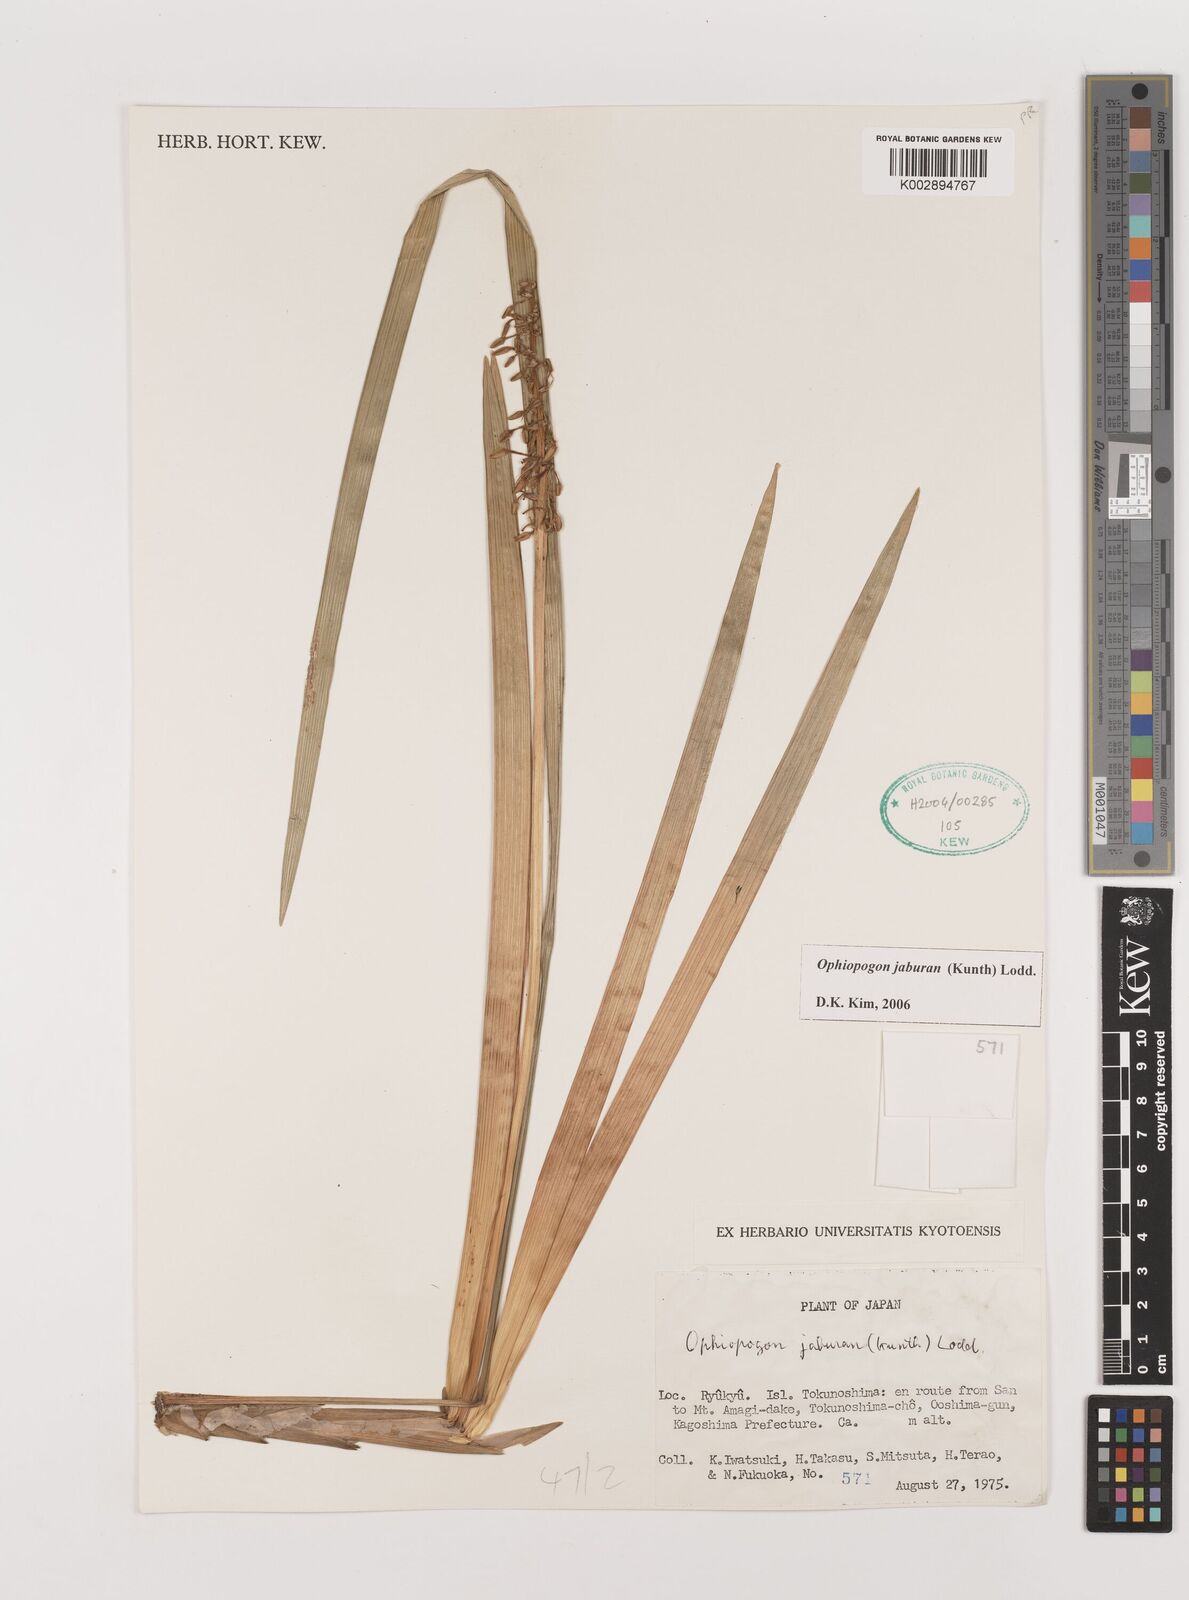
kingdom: Plantae
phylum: Tracheophyta
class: Liliopsida
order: Asparagales
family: Asparagaceae
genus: Ophiopogon
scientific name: Ophiopogon jaburan
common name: Lilyturf
